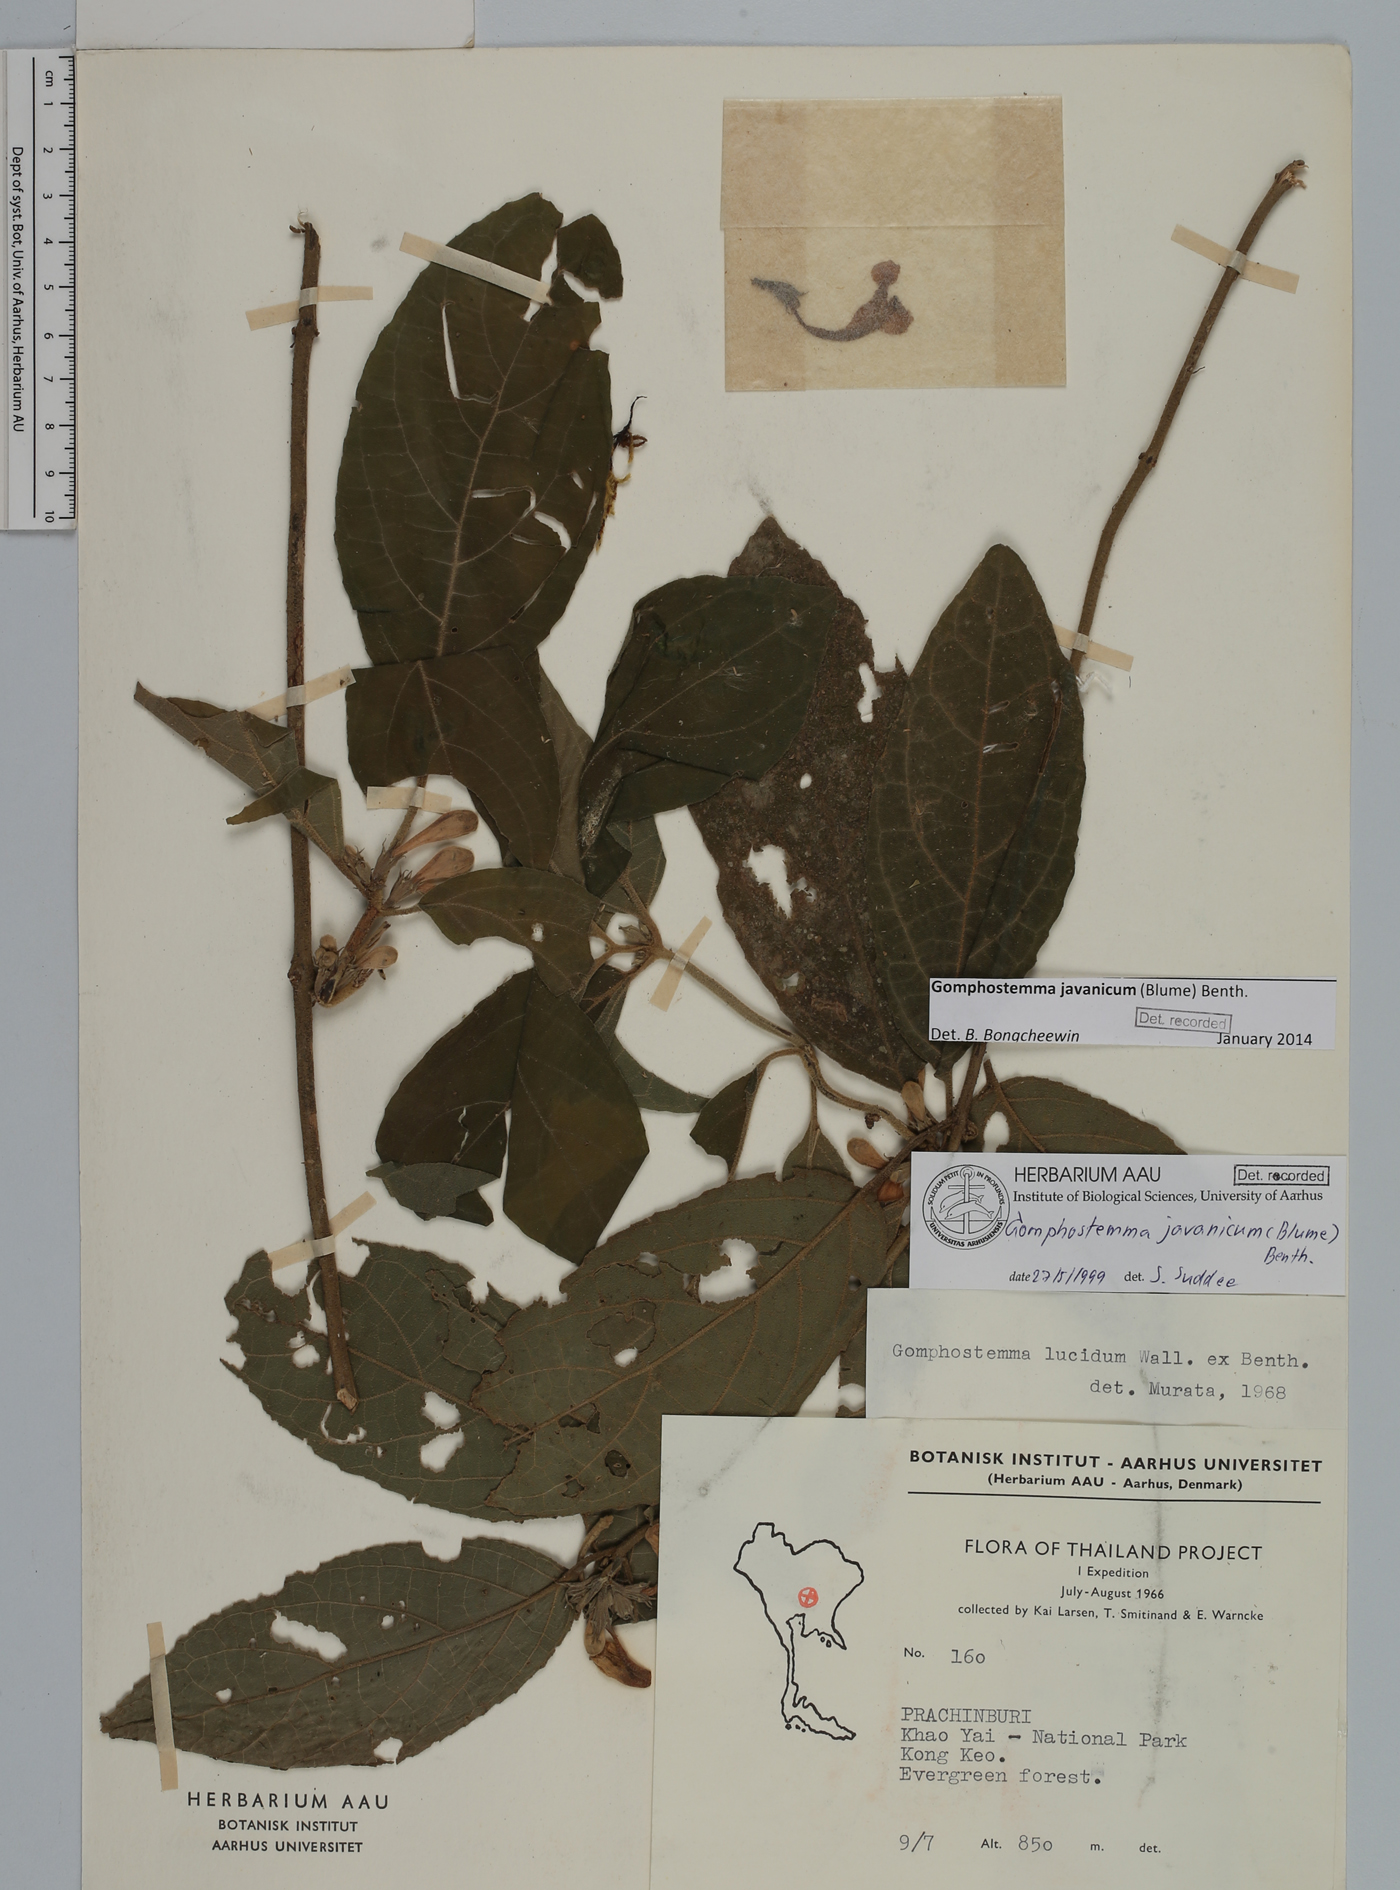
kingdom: Plantae
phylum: Tracheophyta
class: Magnoliopsida
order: Lamiales
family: Lamiaceae
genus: Gomphostemma
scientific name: Gomphostemma javanicum
